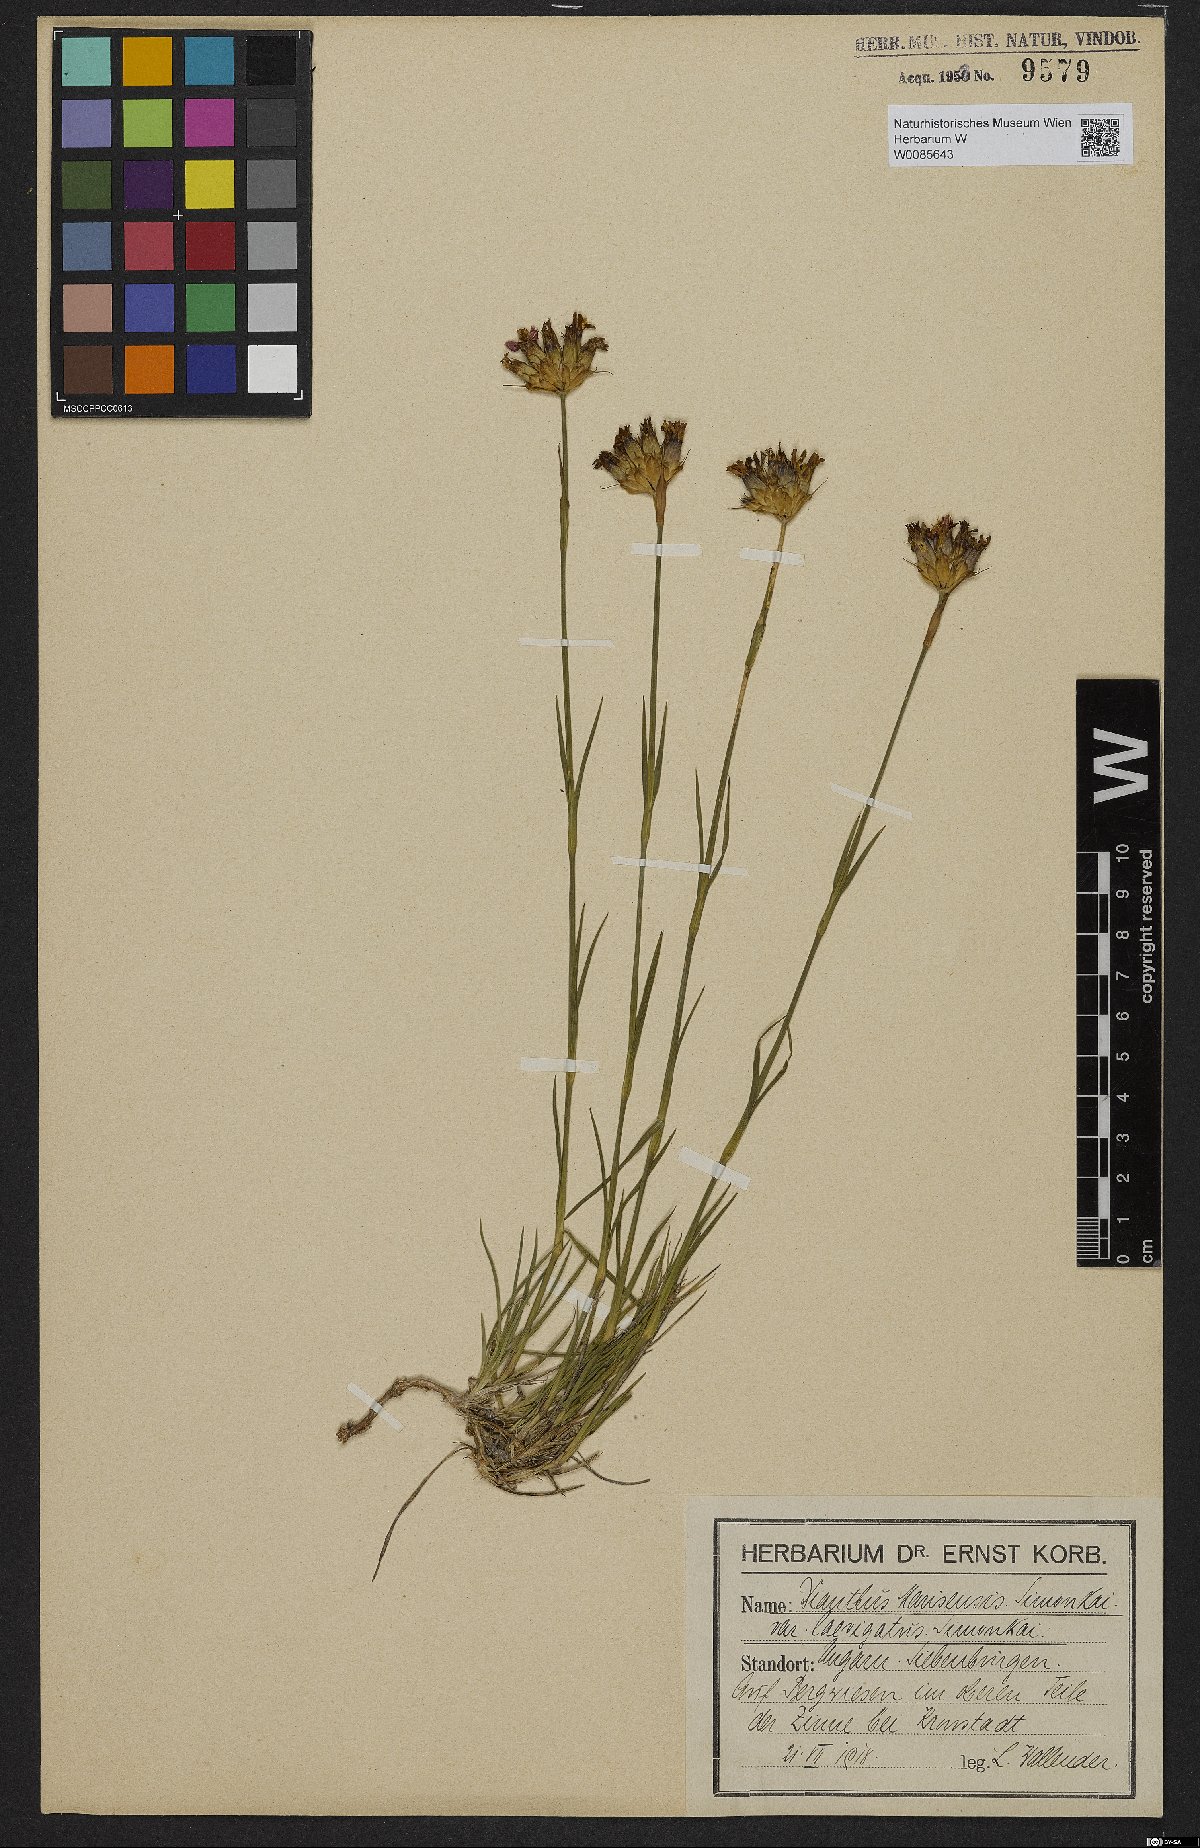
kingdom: Plantae
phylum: Tracheophyta
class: Magnoliopsida
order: Caryophyllales
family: Caryophyllaceae
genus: Dianthus
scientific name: Dianthus
